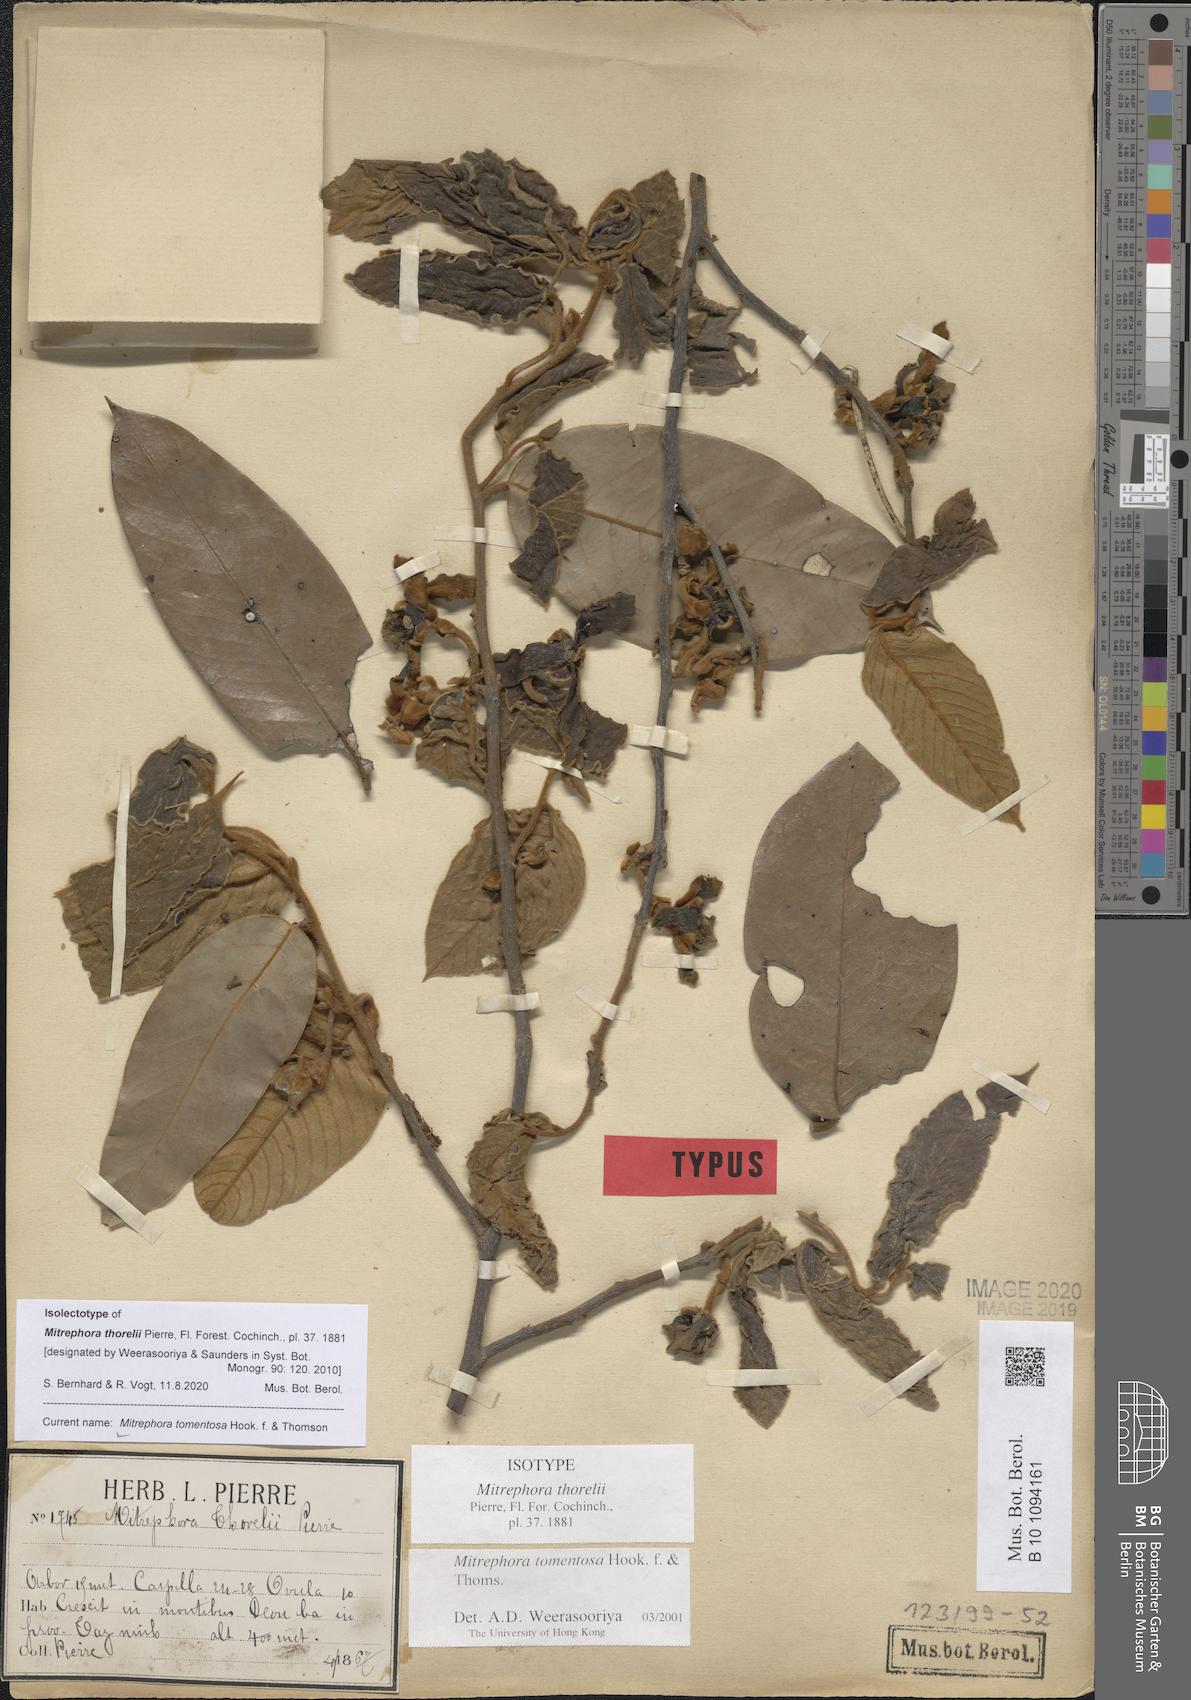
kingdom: Plantae
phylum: Tracheophyta
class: Magnoliopsida
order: Magnoliales
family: Annonaceae
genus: Mitrephora
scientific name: Mitrephora tomentosa
